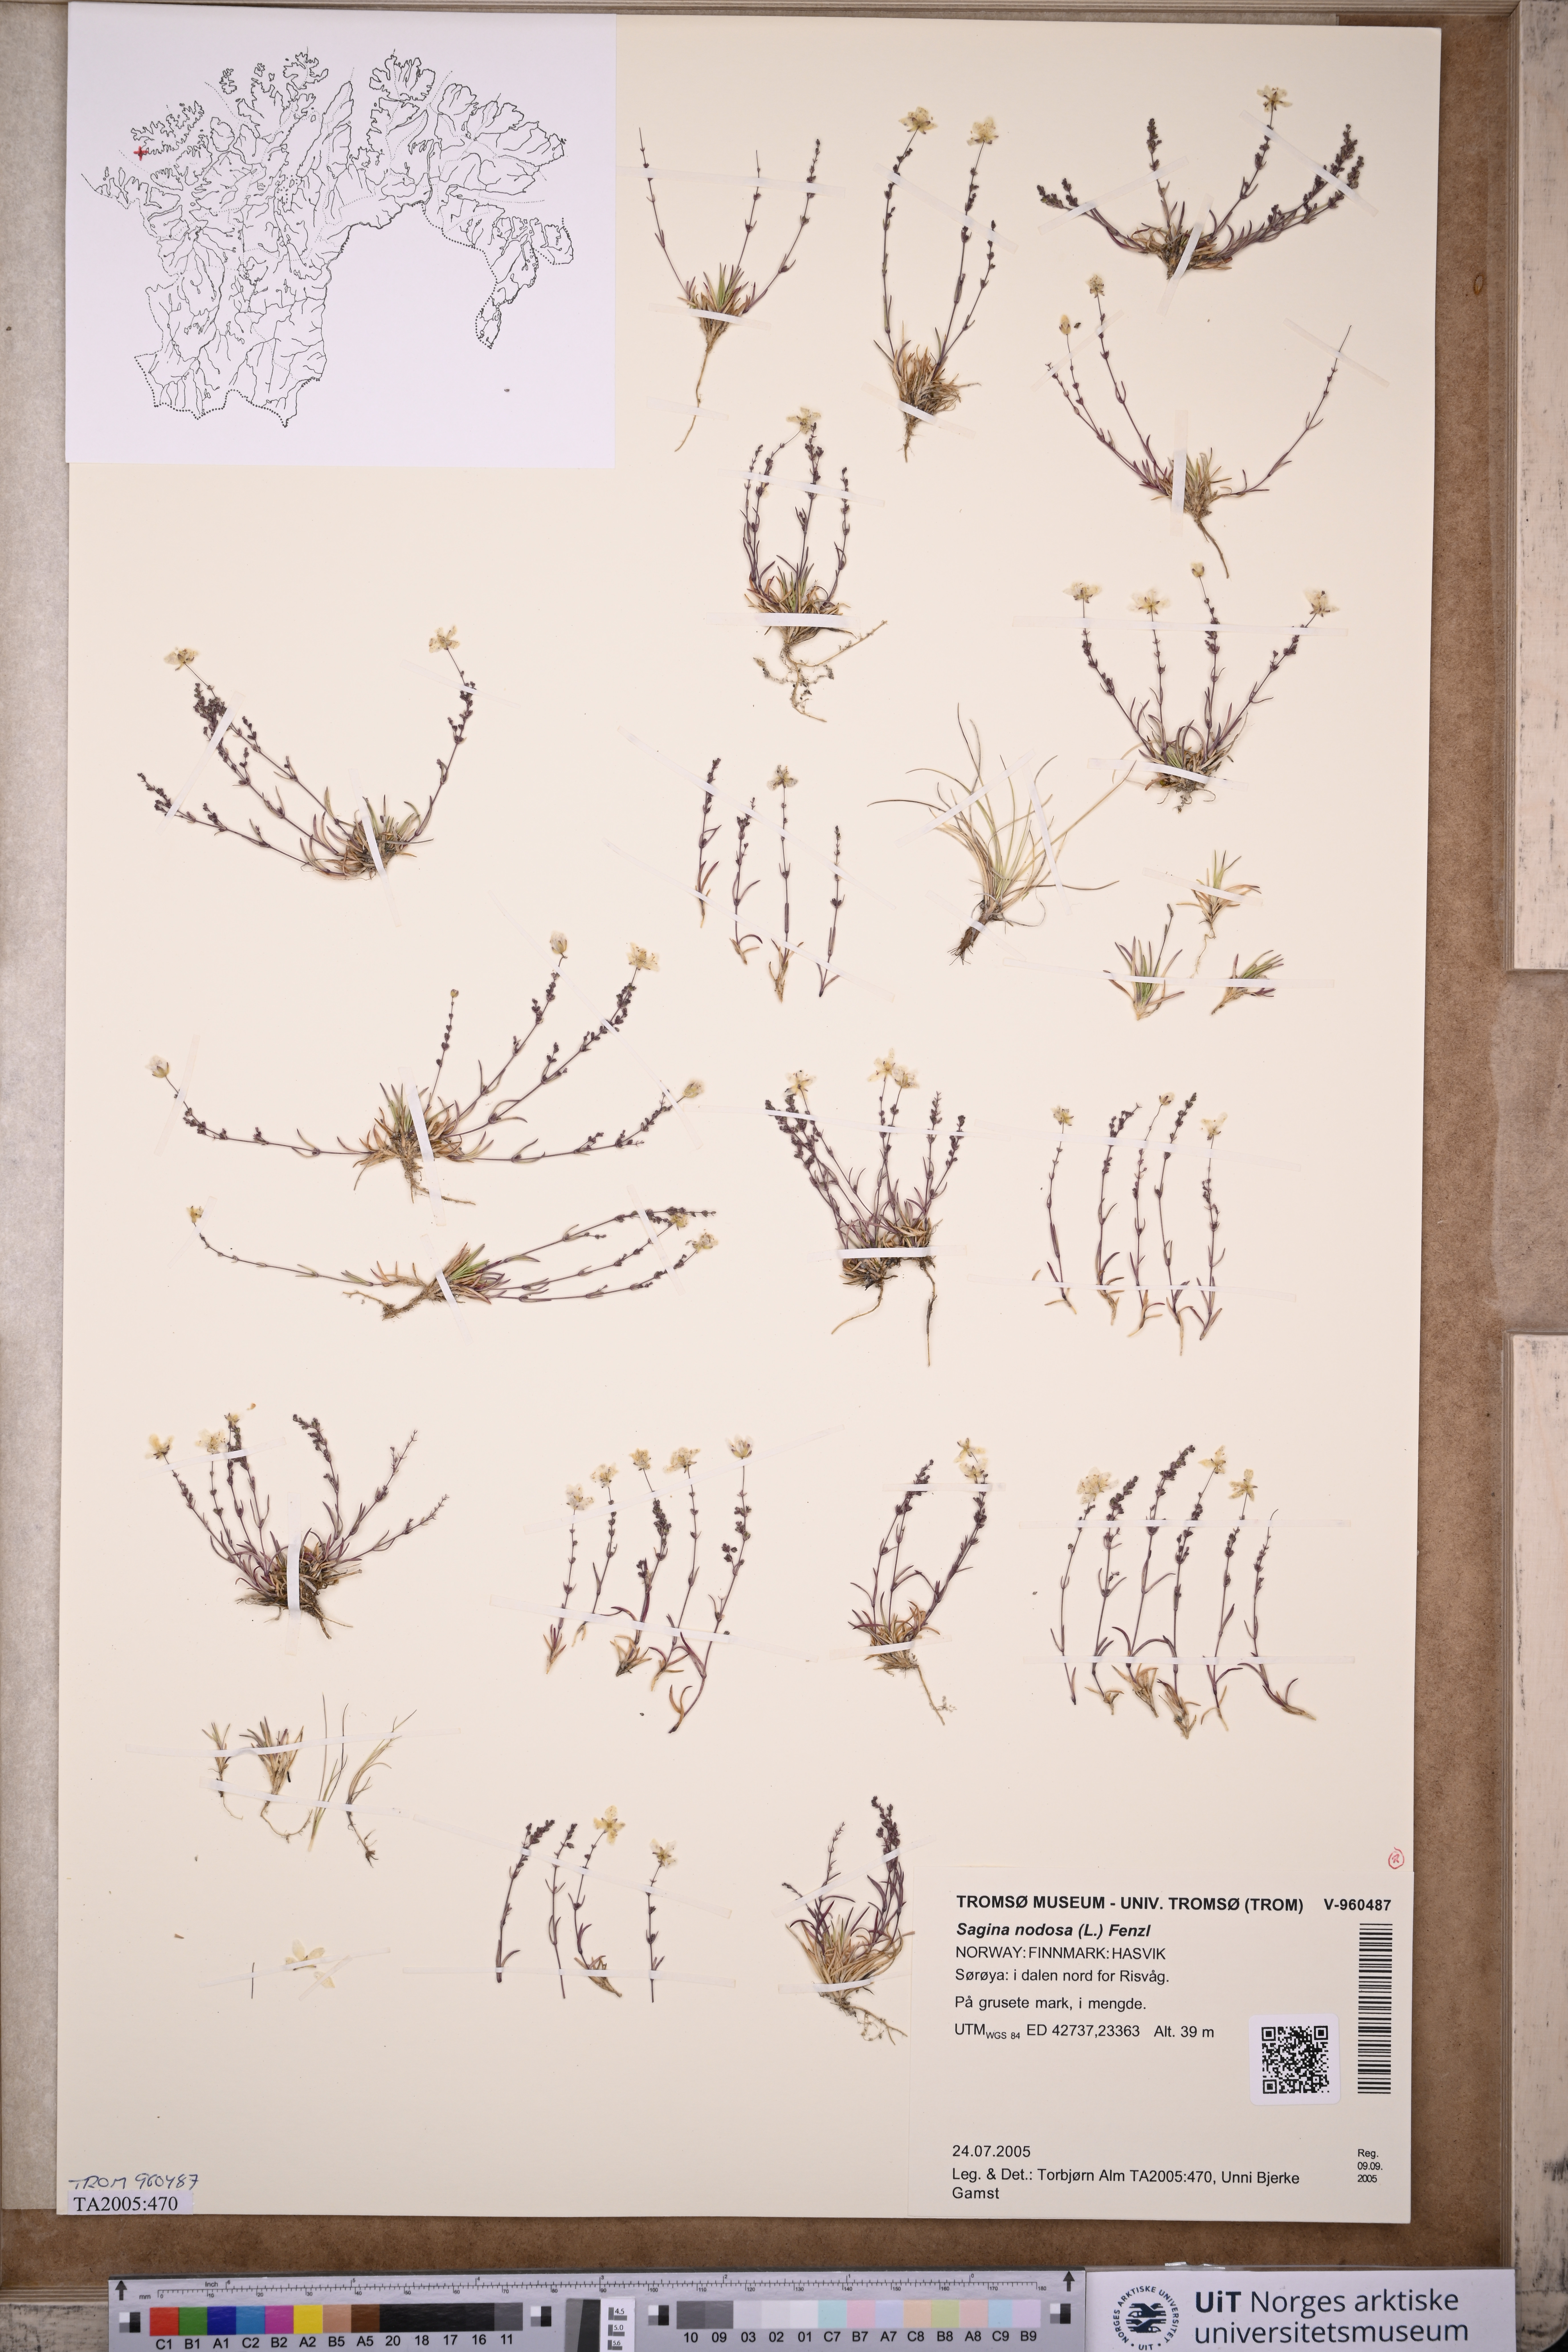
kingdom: Plantae
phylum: Tracheophyta
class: Magnoliopsida
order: Caryophyllales
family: Caryophyllaceae
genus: Sagina
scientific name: Sagina nodosa
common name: Knotted pearlwort
